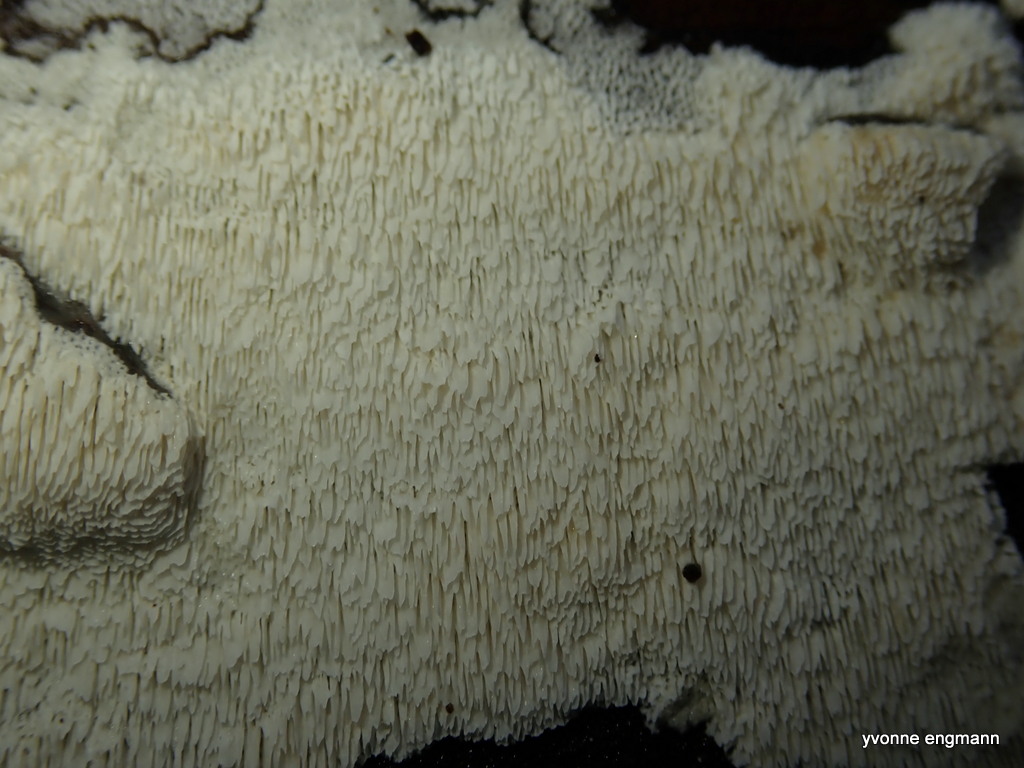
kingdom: Fungi
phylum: Basidiomycota
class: Agaricomycetes
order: Hymenochaetales
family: Schizoporaceae
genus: Schizopora
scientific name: Schizopora paradoxa
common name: hvid tandsvamp
